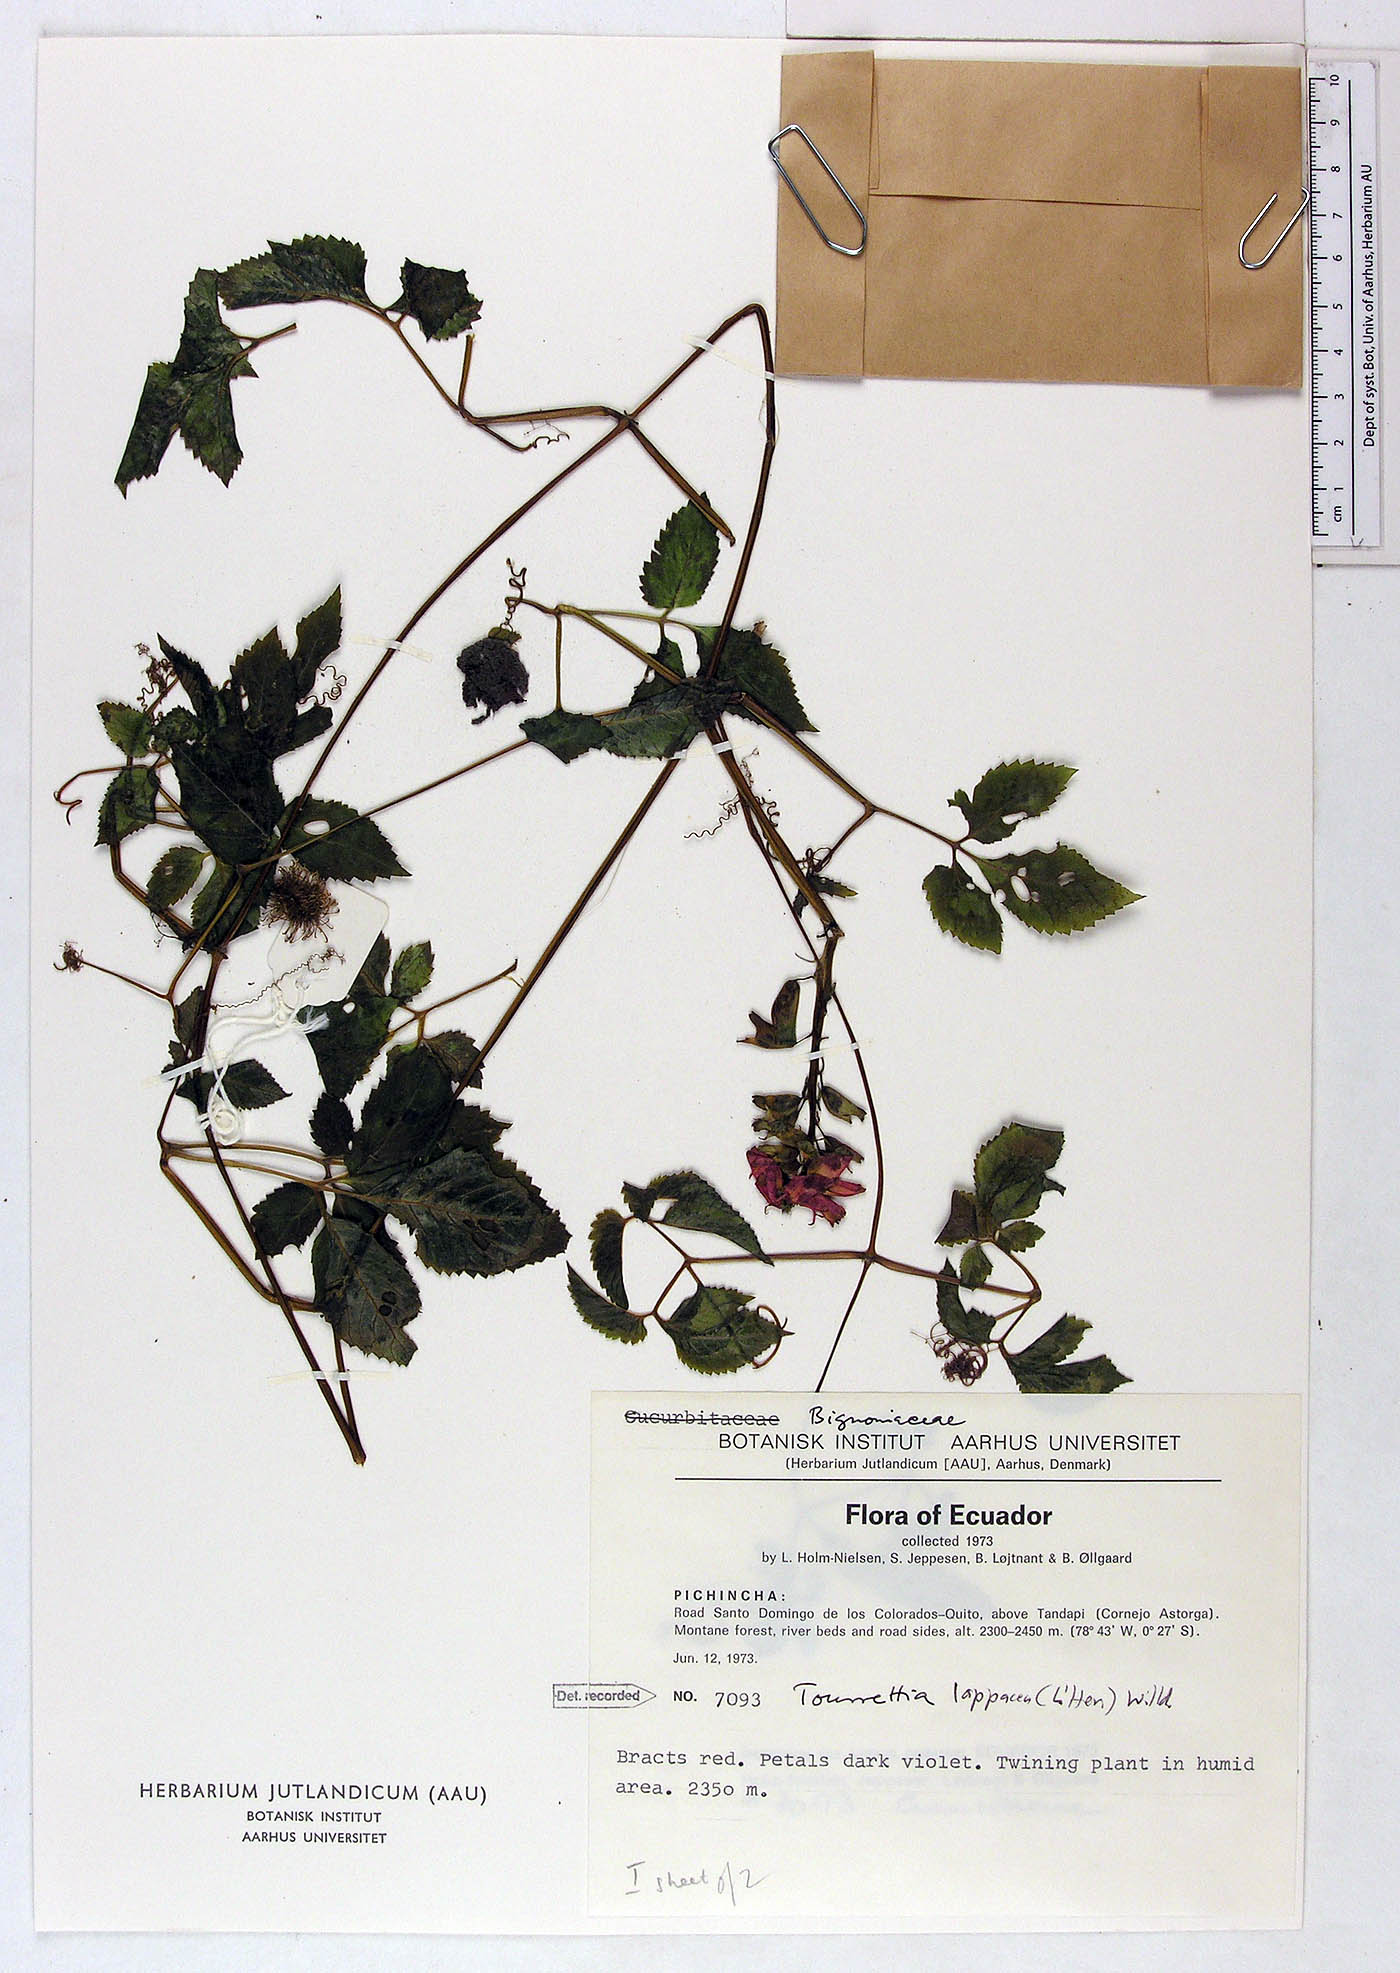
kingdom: Plantae
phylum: Tracheophyta
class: Magnoliopsida
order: Lamiales
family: Bignoniaceae
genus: Tourrettia
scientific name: Tourrettia lappacea
